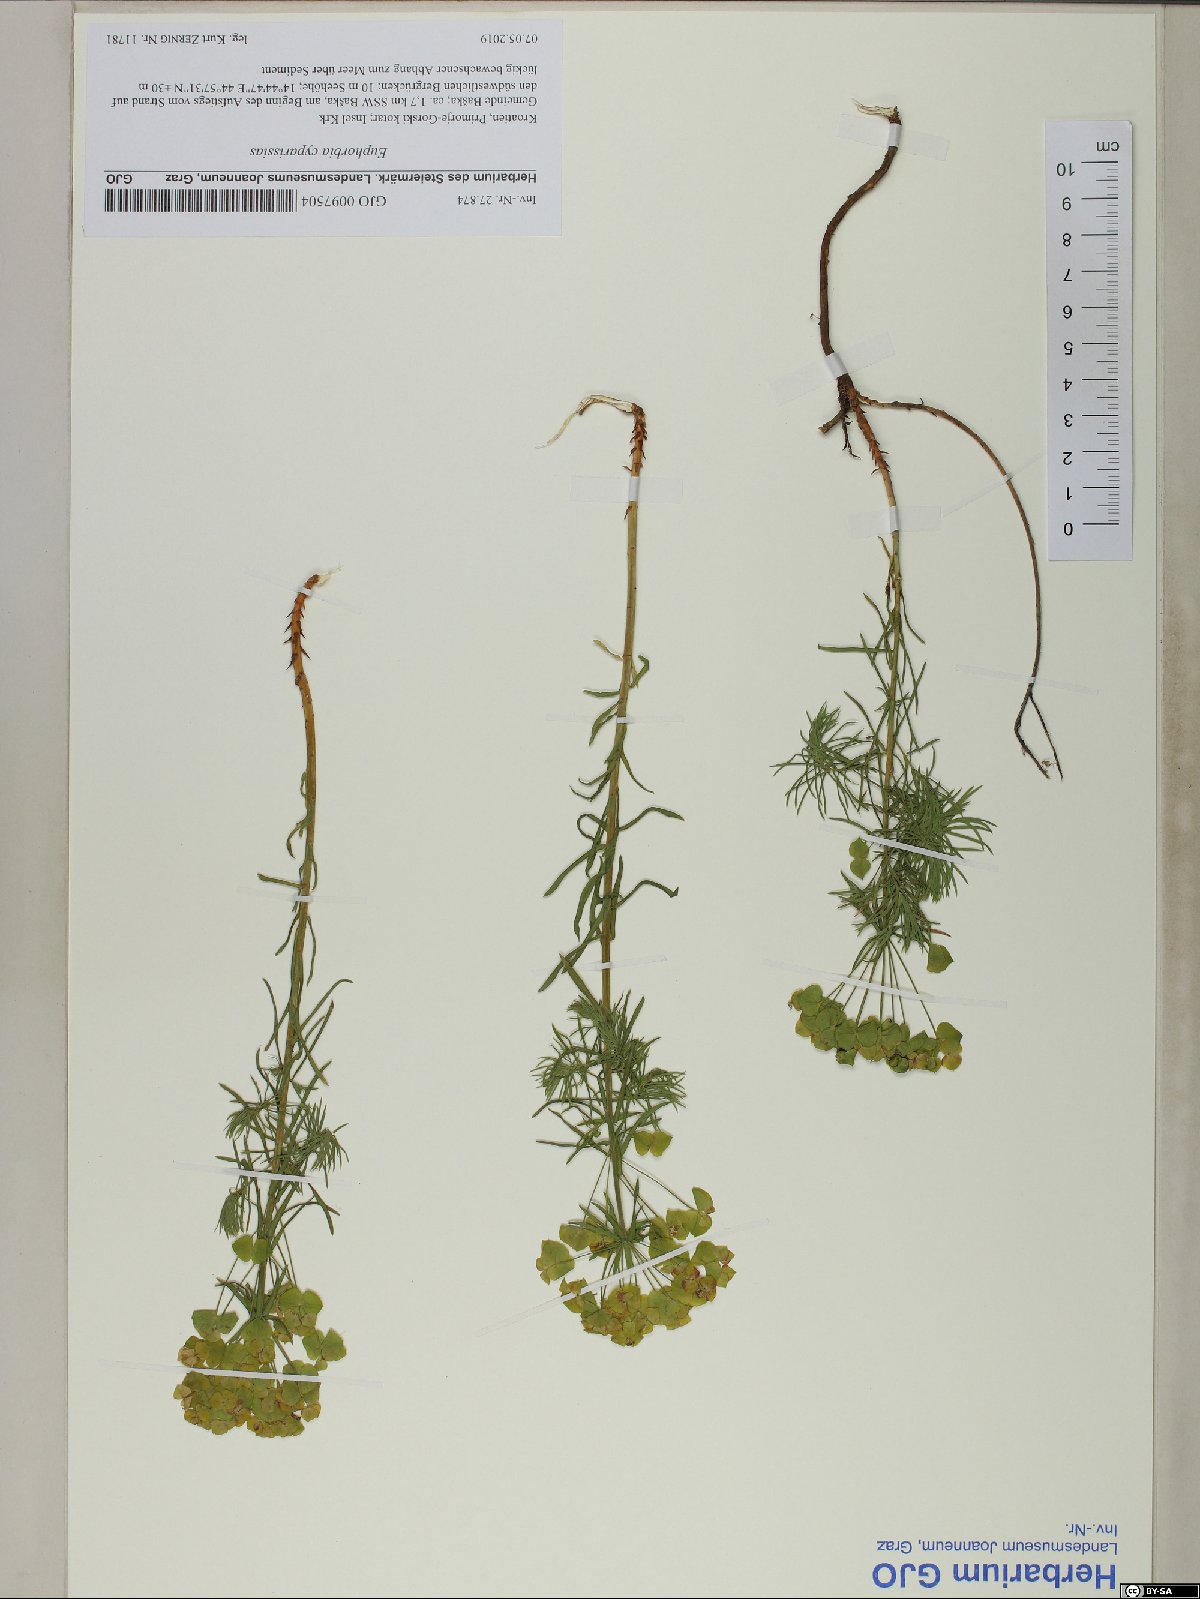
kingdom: Plantae
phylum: Tracheophyta
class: Magnoliopsida
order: Malpighiales
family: Euphorbiaceae
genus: Euphorbia
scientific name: Euphorbia cyparissias
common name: Cypress spurge
